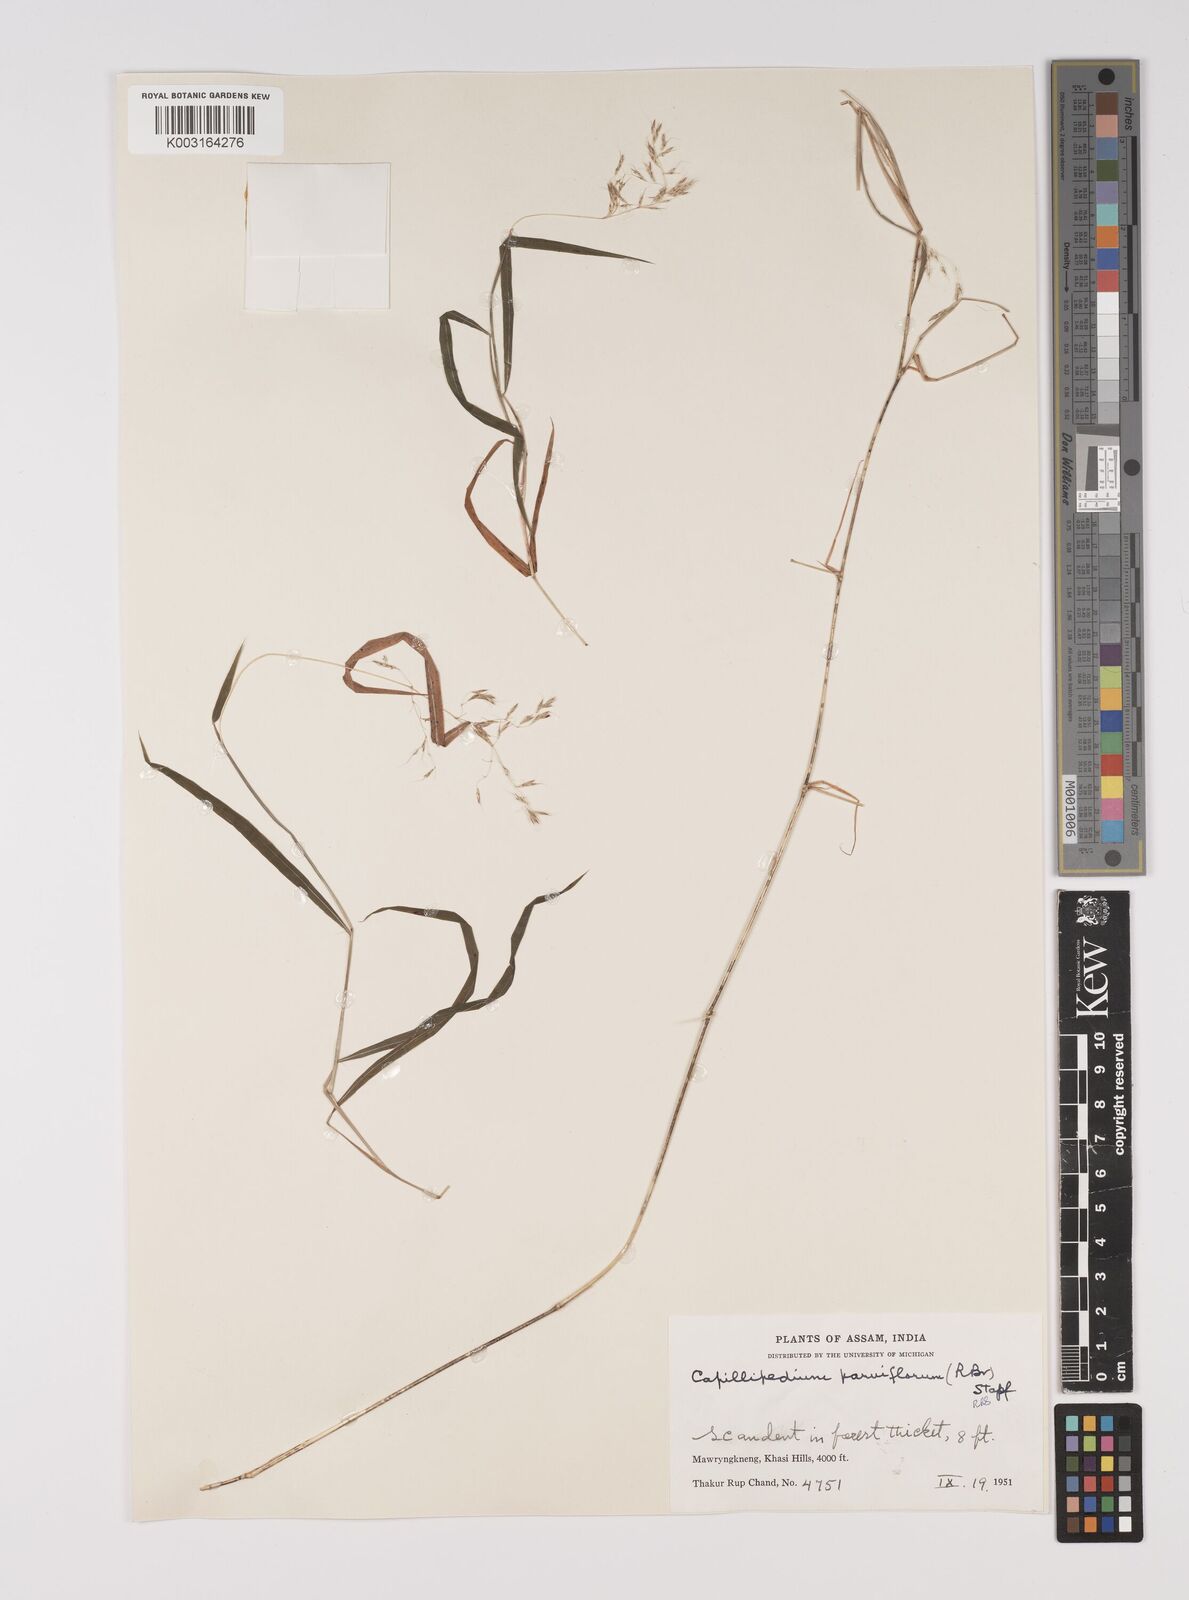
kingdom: Plantae
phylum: Tracheophyta
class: Liliopsida
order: Poales
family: Poaceae
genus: Capillipedium
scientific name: Capillipedium parviflorum
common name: Golden-beard
